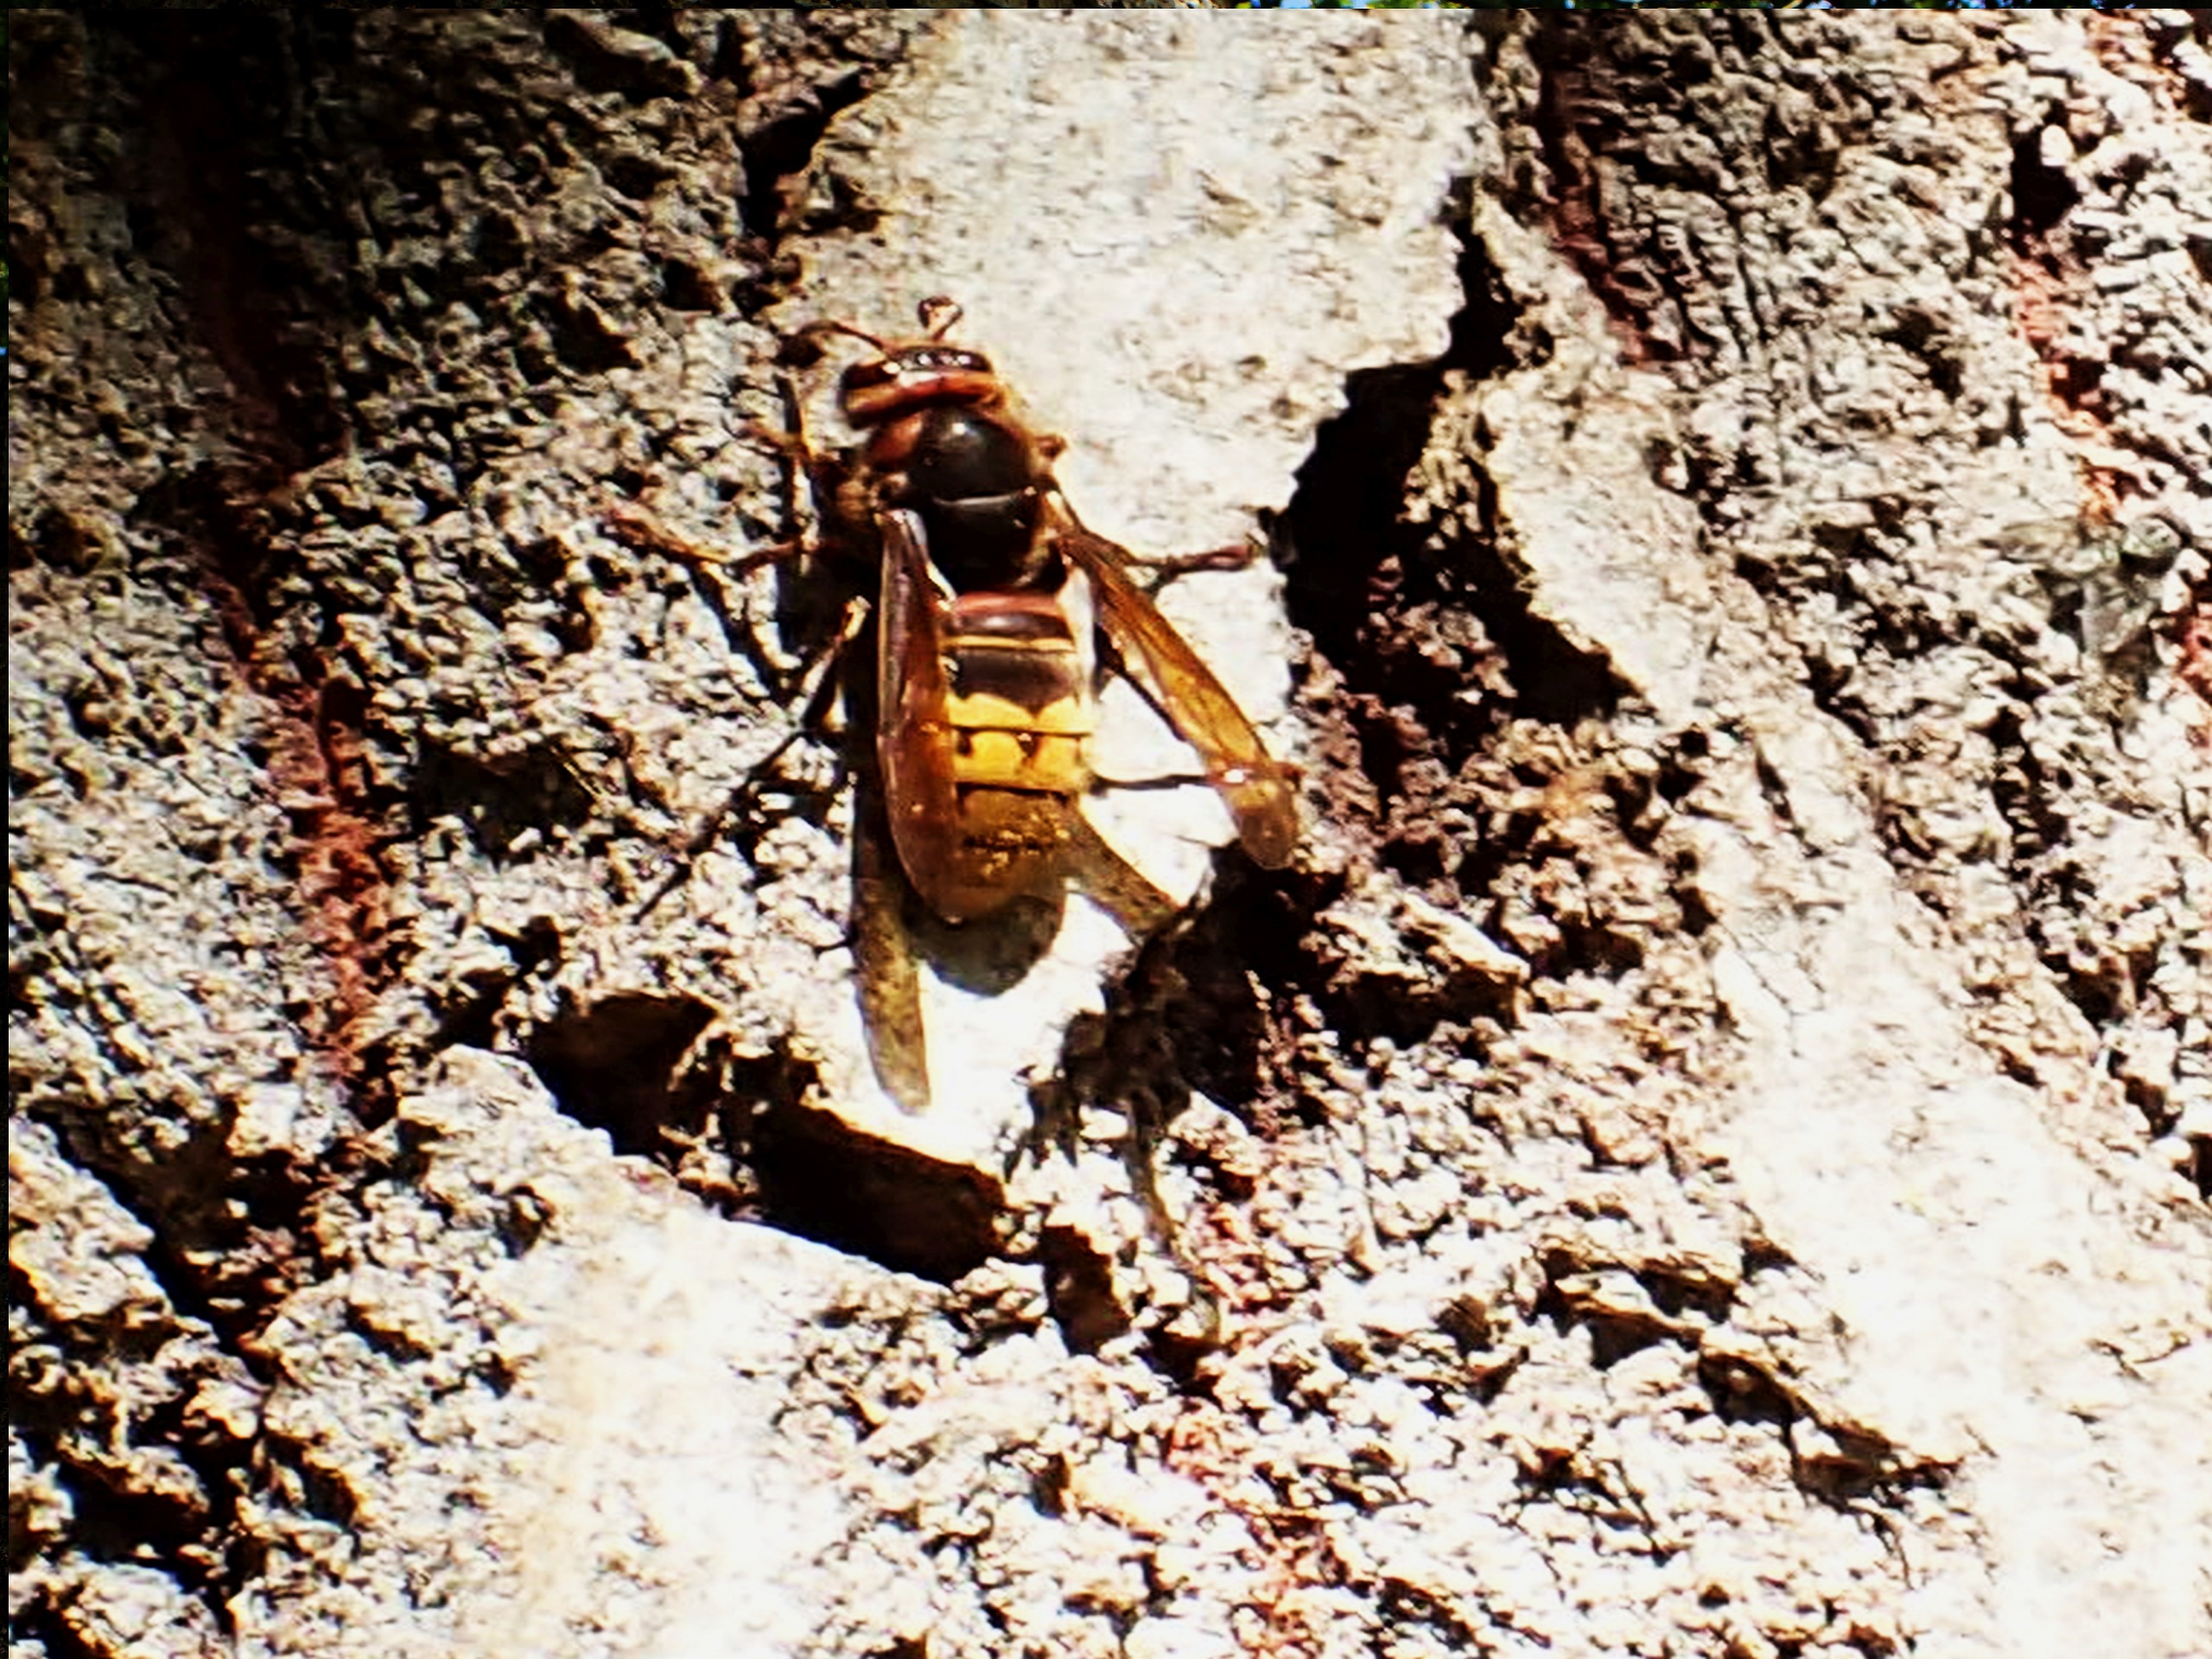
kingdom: Animalia
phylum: Arthropoda
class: Insecta
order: Hymenoptera
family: Vespidae
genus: Vespa
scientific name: Vespa crabro
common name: Stor gedehams
